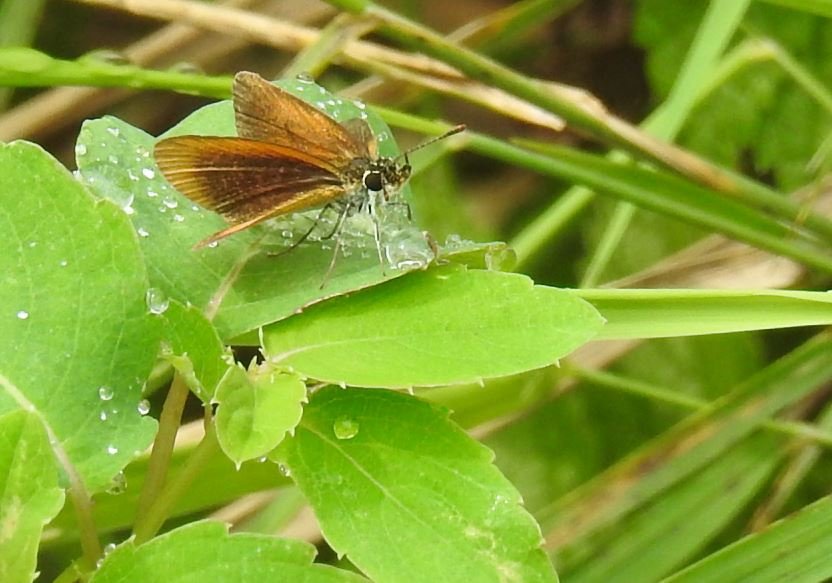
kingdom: Animalia
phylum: Arthropoda
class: Insecta
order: Lepidoptera
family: Hesperiidae
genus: Ancyloxypha
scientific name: Ancyloxypha numitor
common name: Least Skipper
